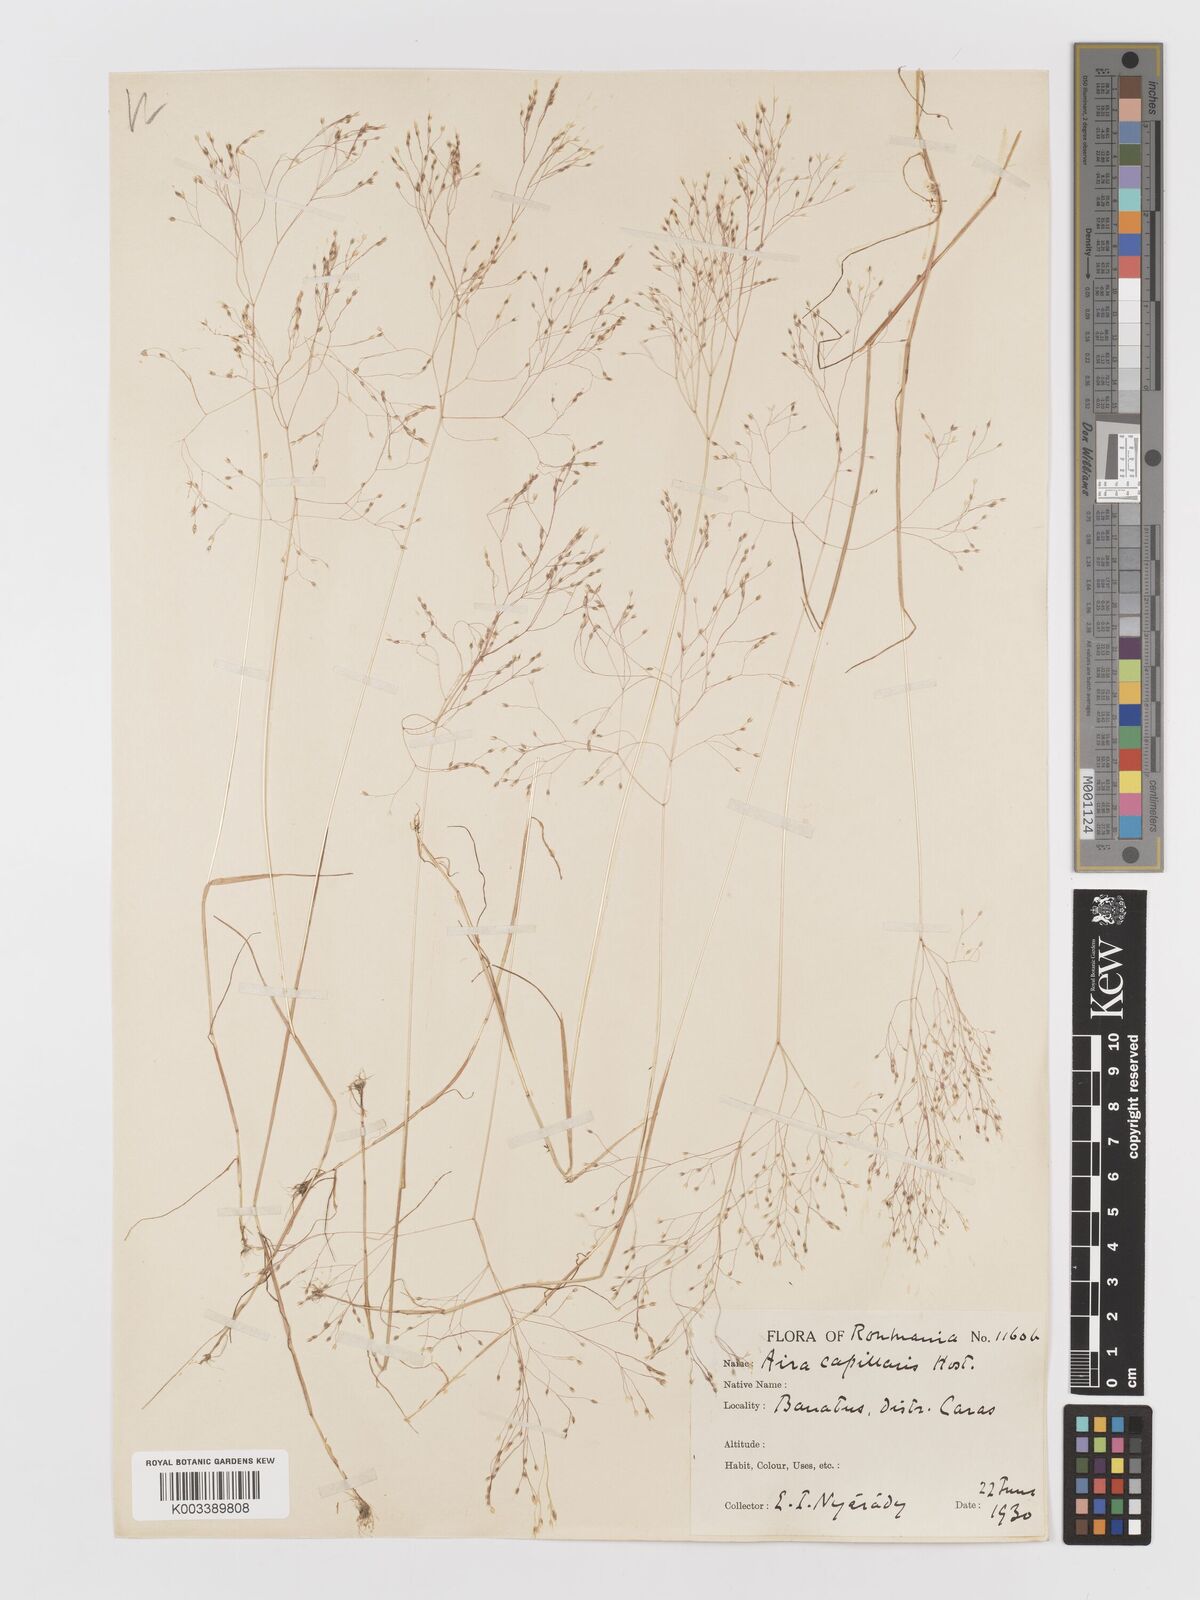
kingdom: Plantae
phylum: Tracheophyta
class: Liliopsida
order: Poales
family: Poaceae
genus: Aira
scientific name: Aira elegans
